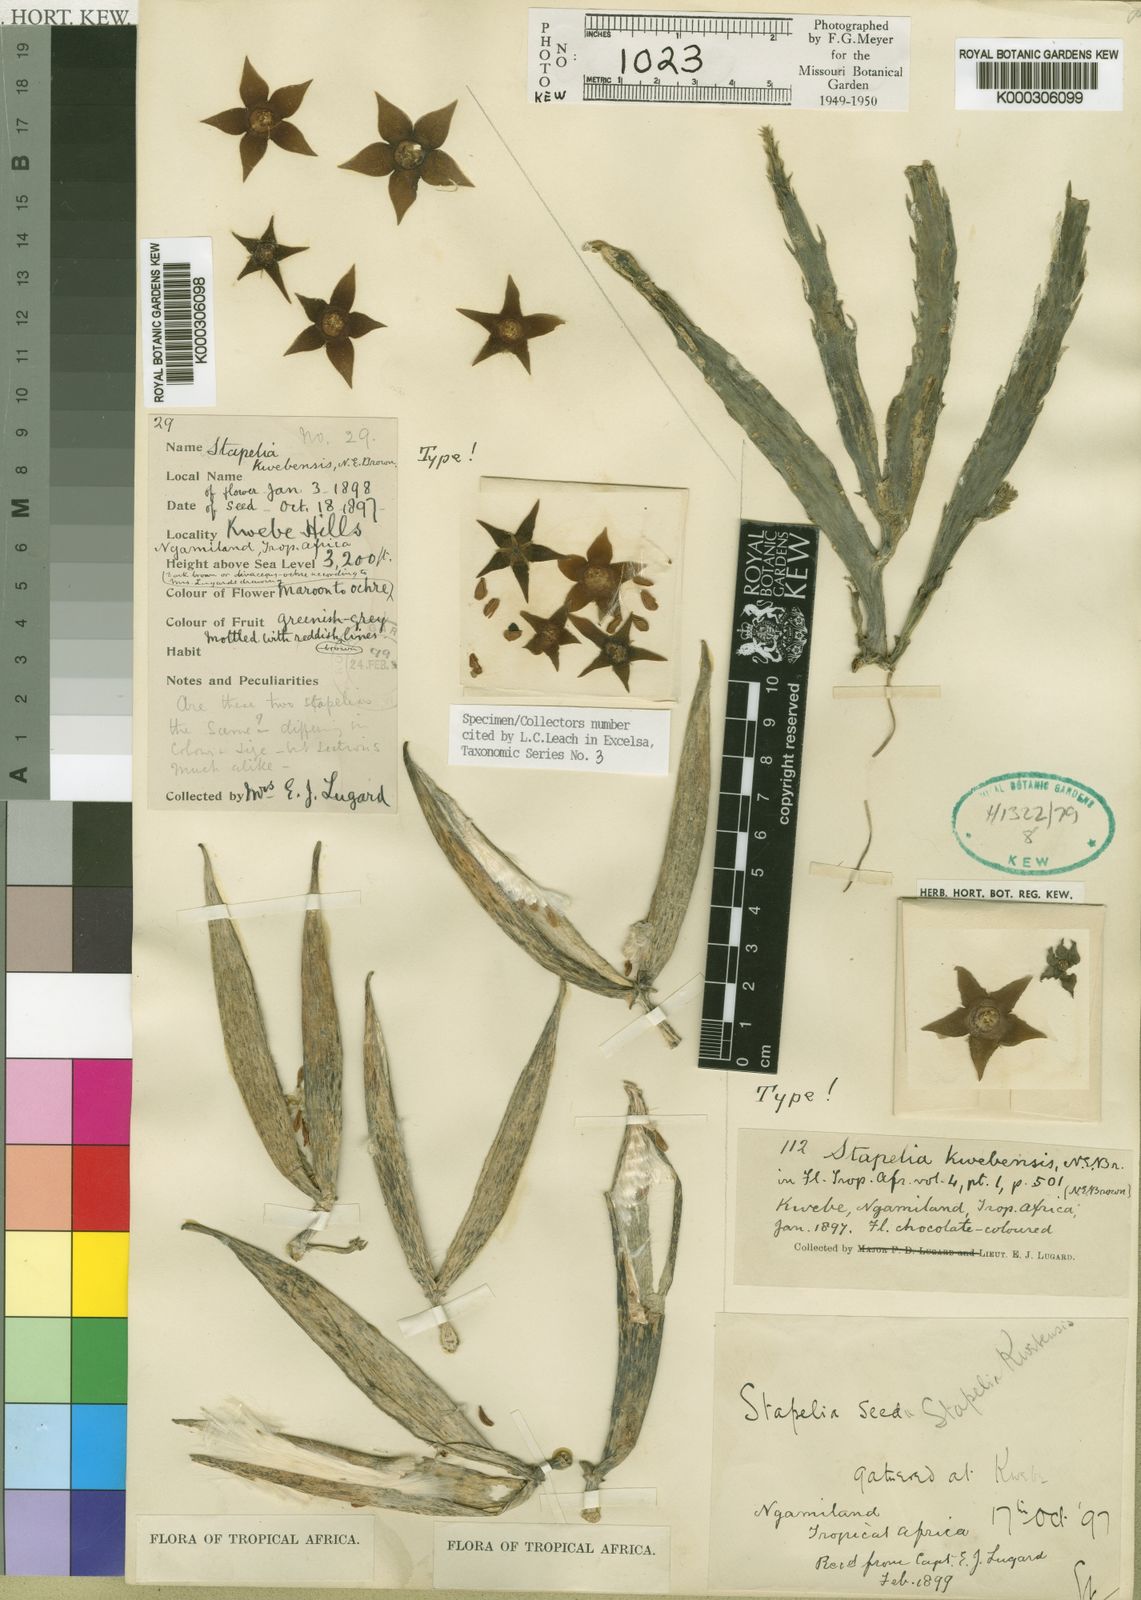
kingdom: Plantae
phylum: Tracheophyta
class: Magnoliopsida
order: Gentianales
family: Apocynaceae
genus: Ceropegia
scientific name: Ceropegia longipedicellata
